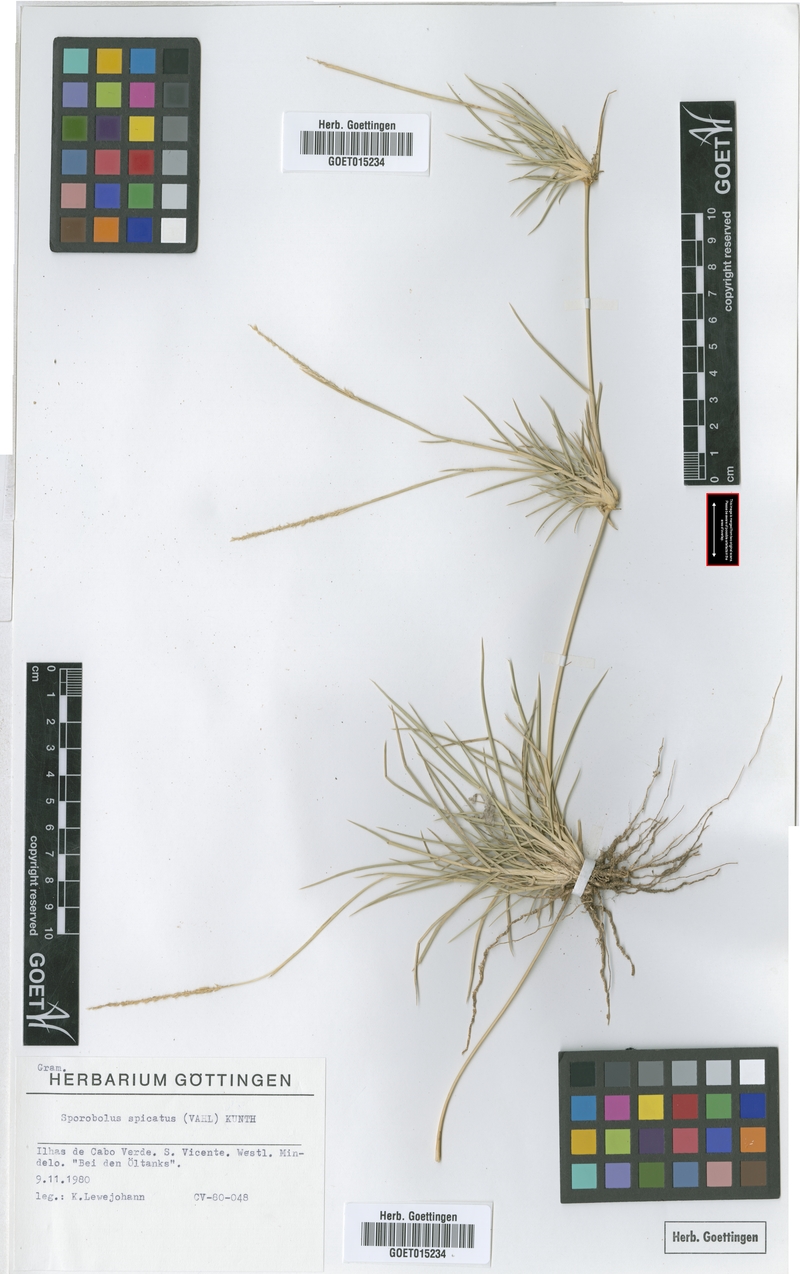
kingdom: Plantae
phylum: Tracheophyta
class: Liliopsida
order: Poales
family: Poaceae
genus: Sporobolus
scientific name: Sporobolus spicatus
